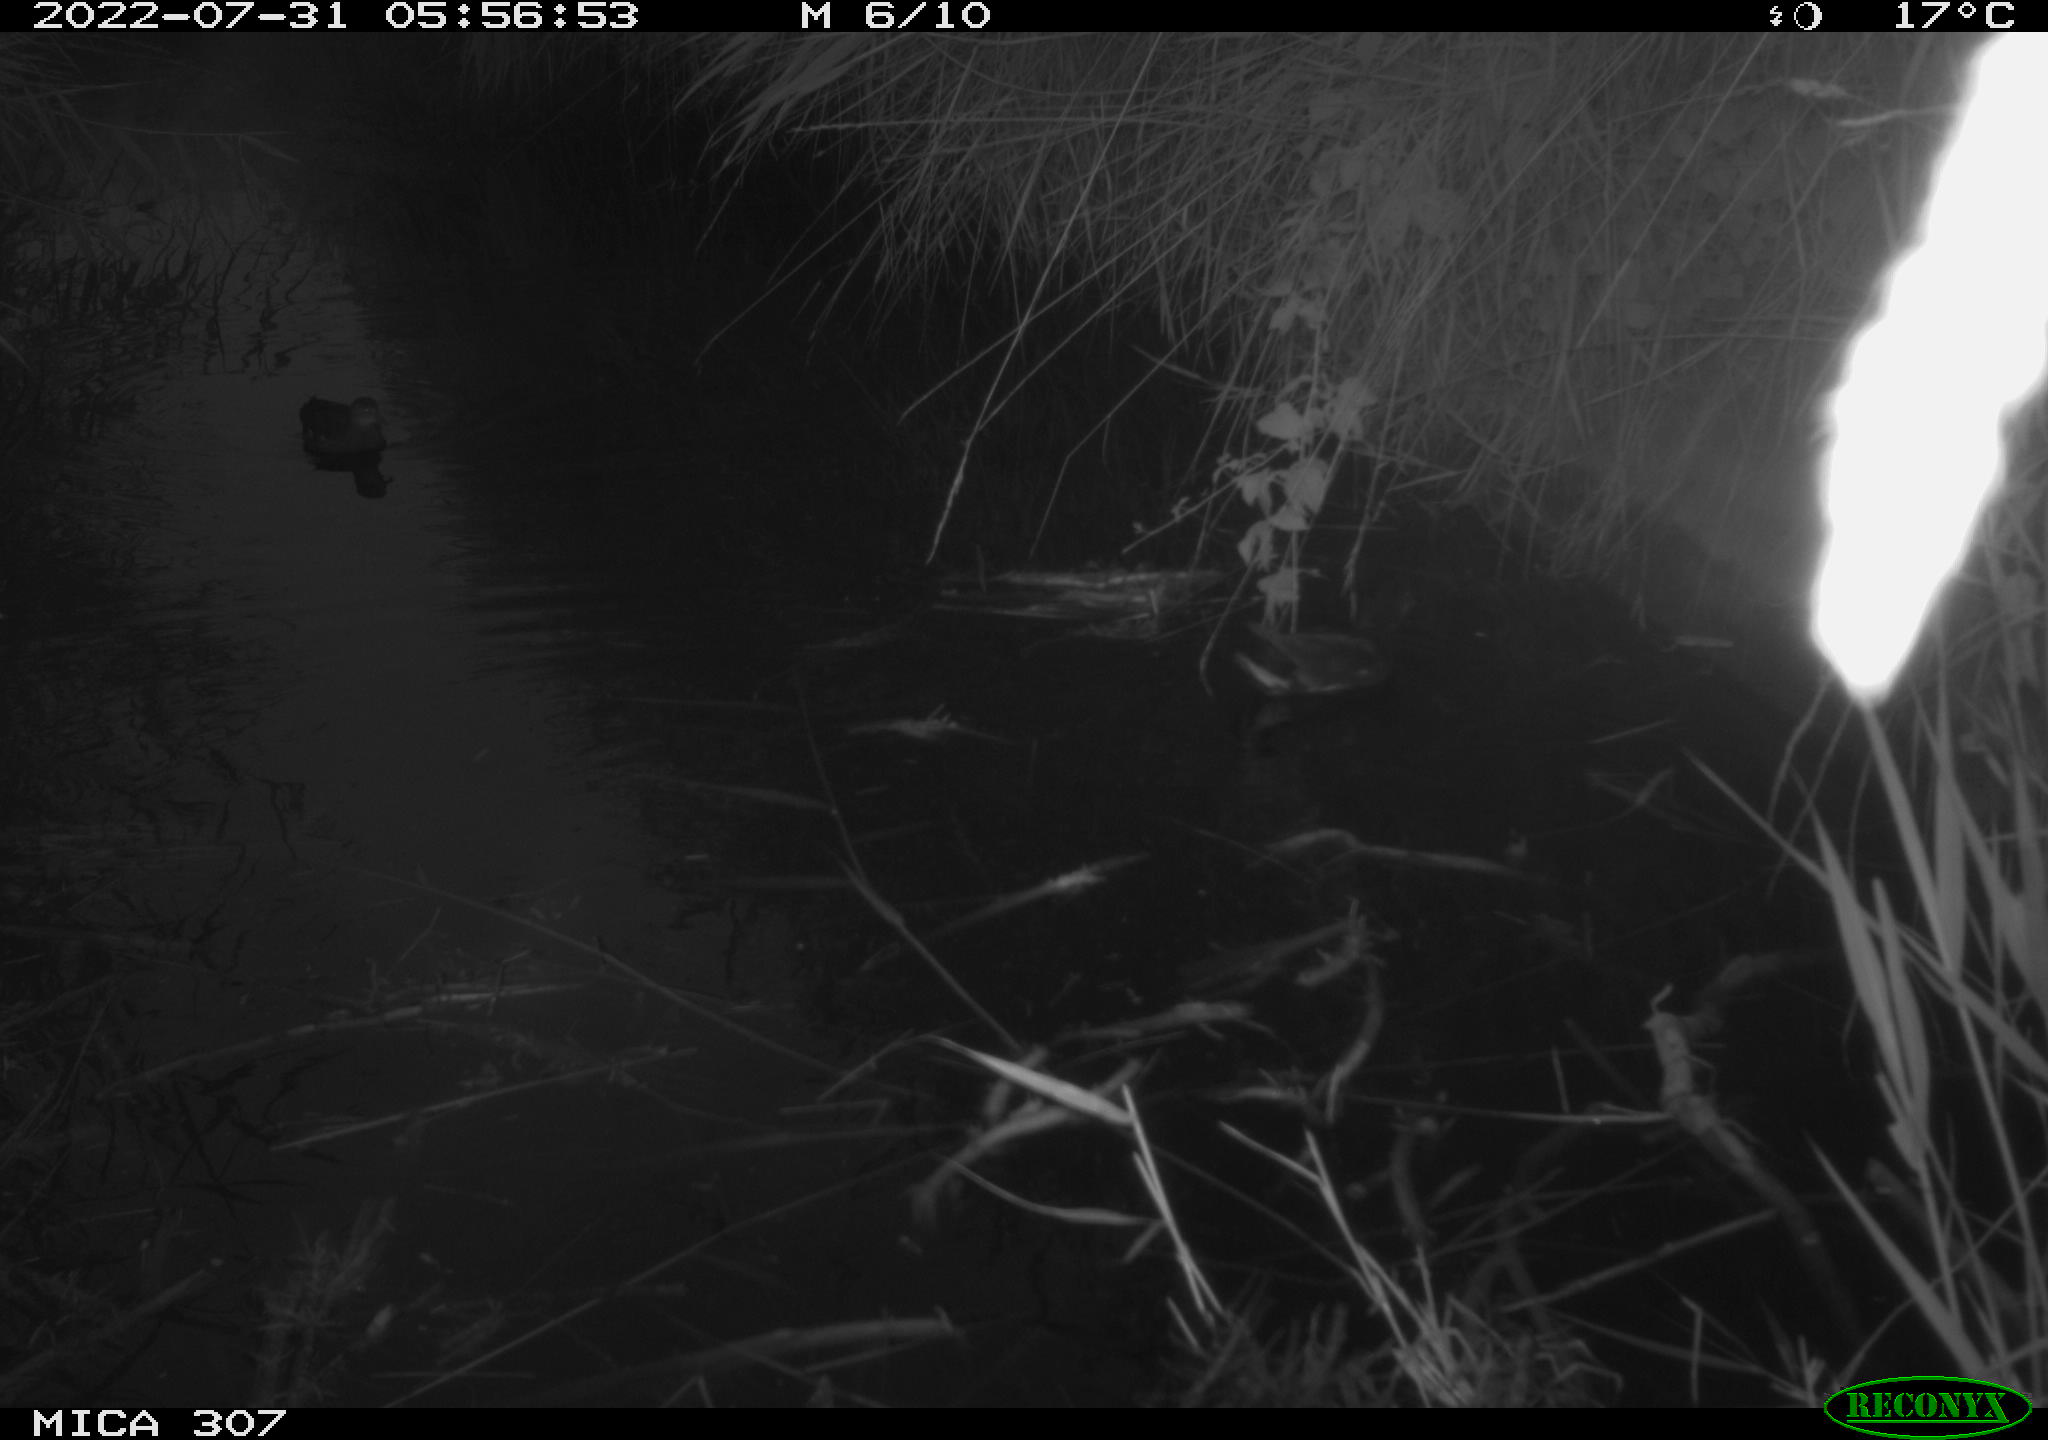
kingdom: Animalia
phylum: Chordata
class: Aves
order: Gruiformes
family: Rallidae
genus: Gallinula
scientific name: Gallinula chloropus
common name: Common moorhen
